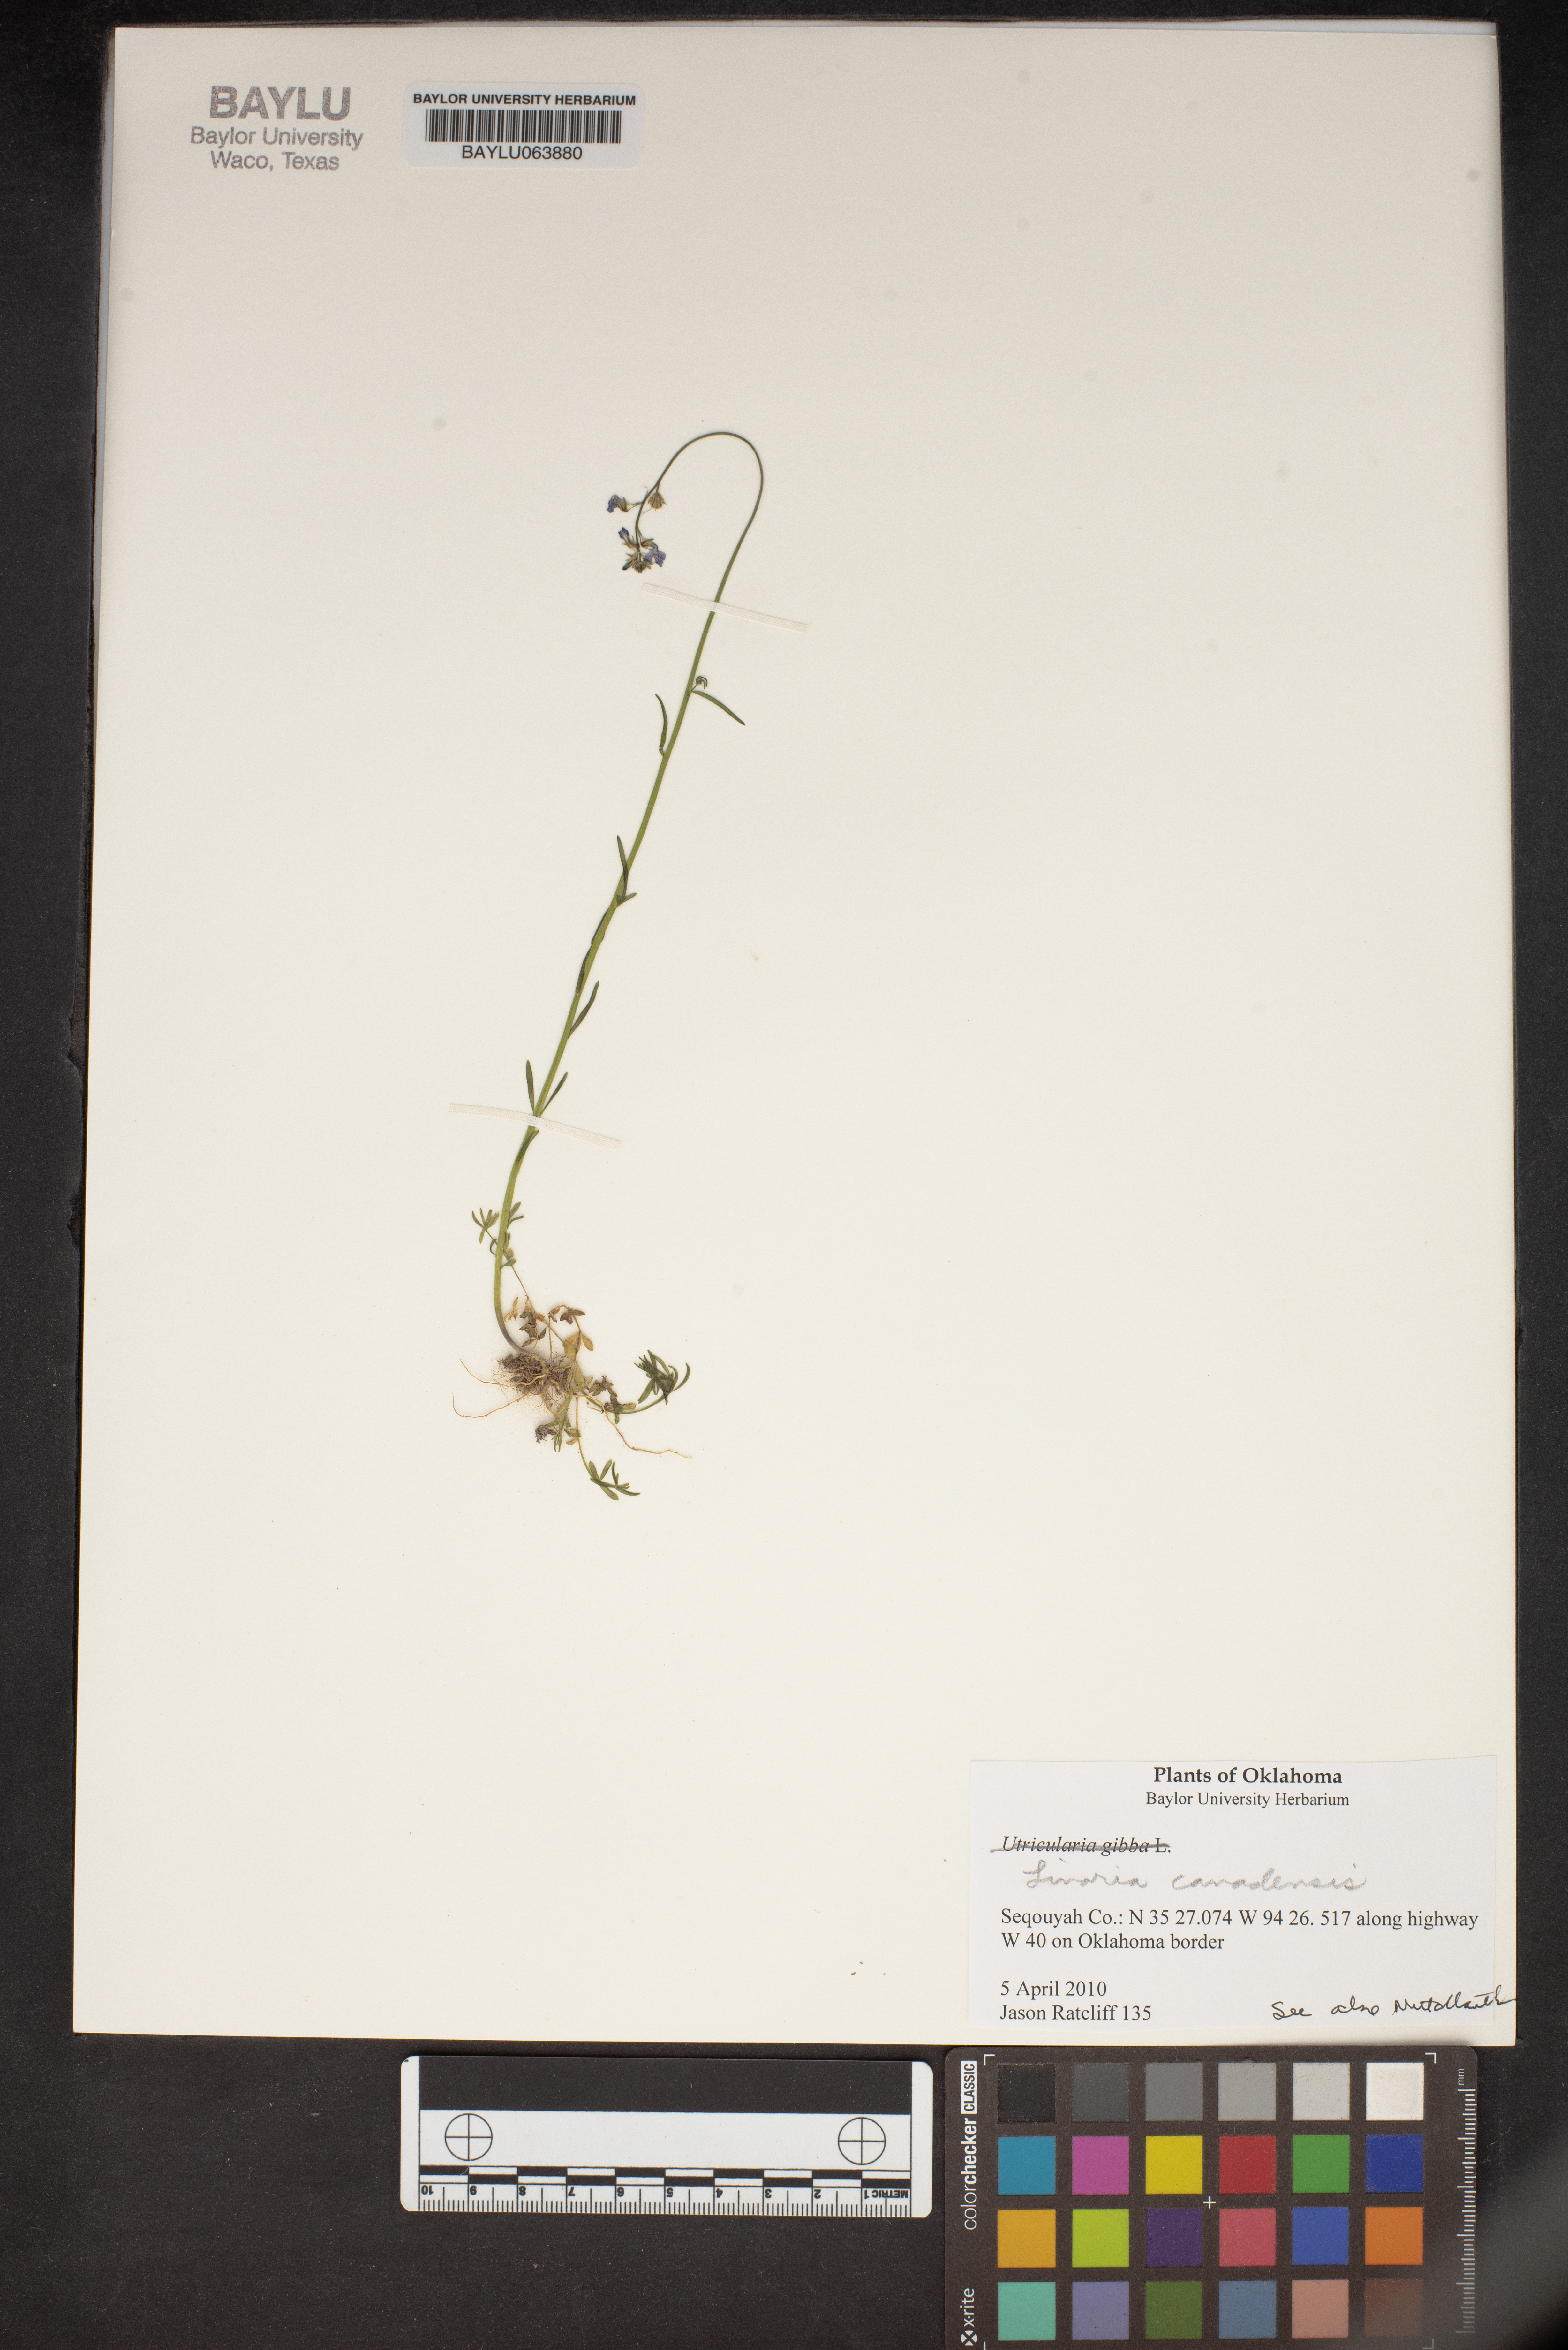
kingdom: Plantae
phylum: Tracheophyta
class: Magnoliopsida
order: Lamiales
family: Plantaginaceae
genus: Nuttallanthus
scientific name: Nuttallanthus canadensis
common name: Blue toadflax
